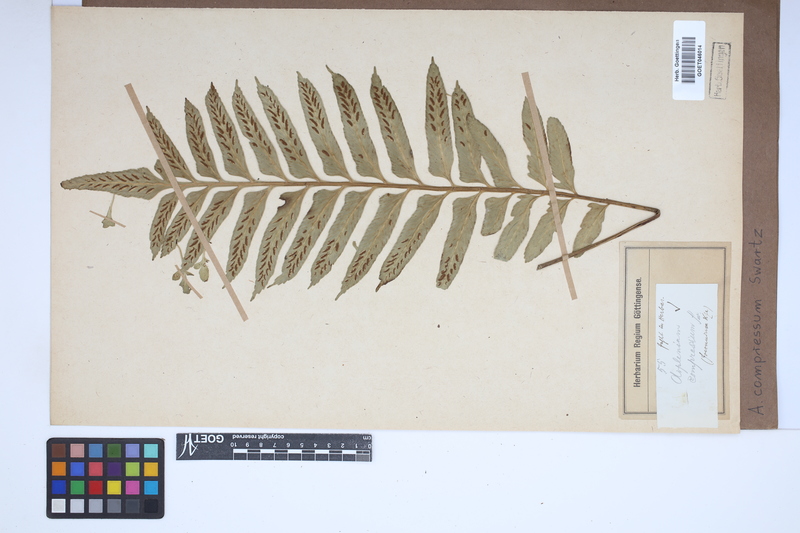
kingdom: Plantae
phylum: Tracheophyta
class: Polypodiopsida
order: Polypodiales
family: Aspleniaceae
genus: Asplenium
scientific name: Asplenium compressum
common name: Hen and chicks fern
